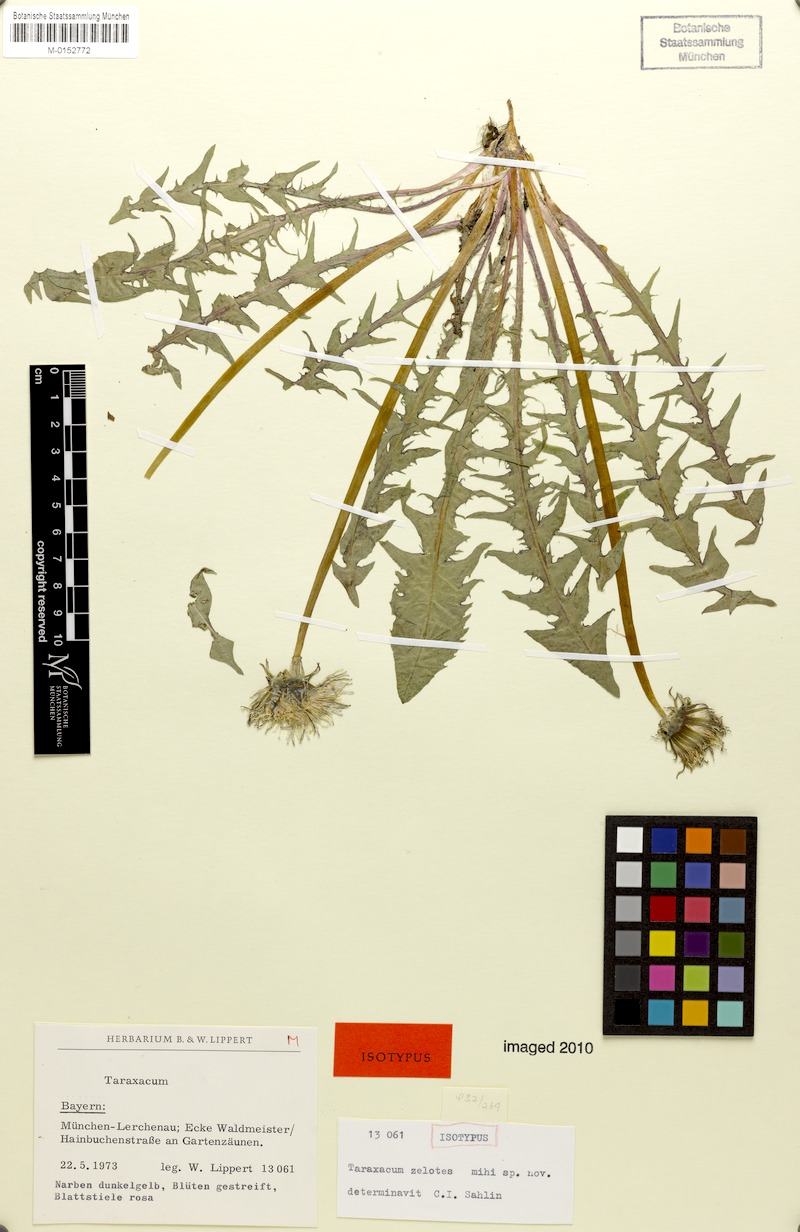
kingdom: Plantae
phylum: Tracheophyta
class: Magnoliopsida
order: Asterales
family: Asteraceae
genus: Taraxacum
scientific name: Taraxacum zelotes
